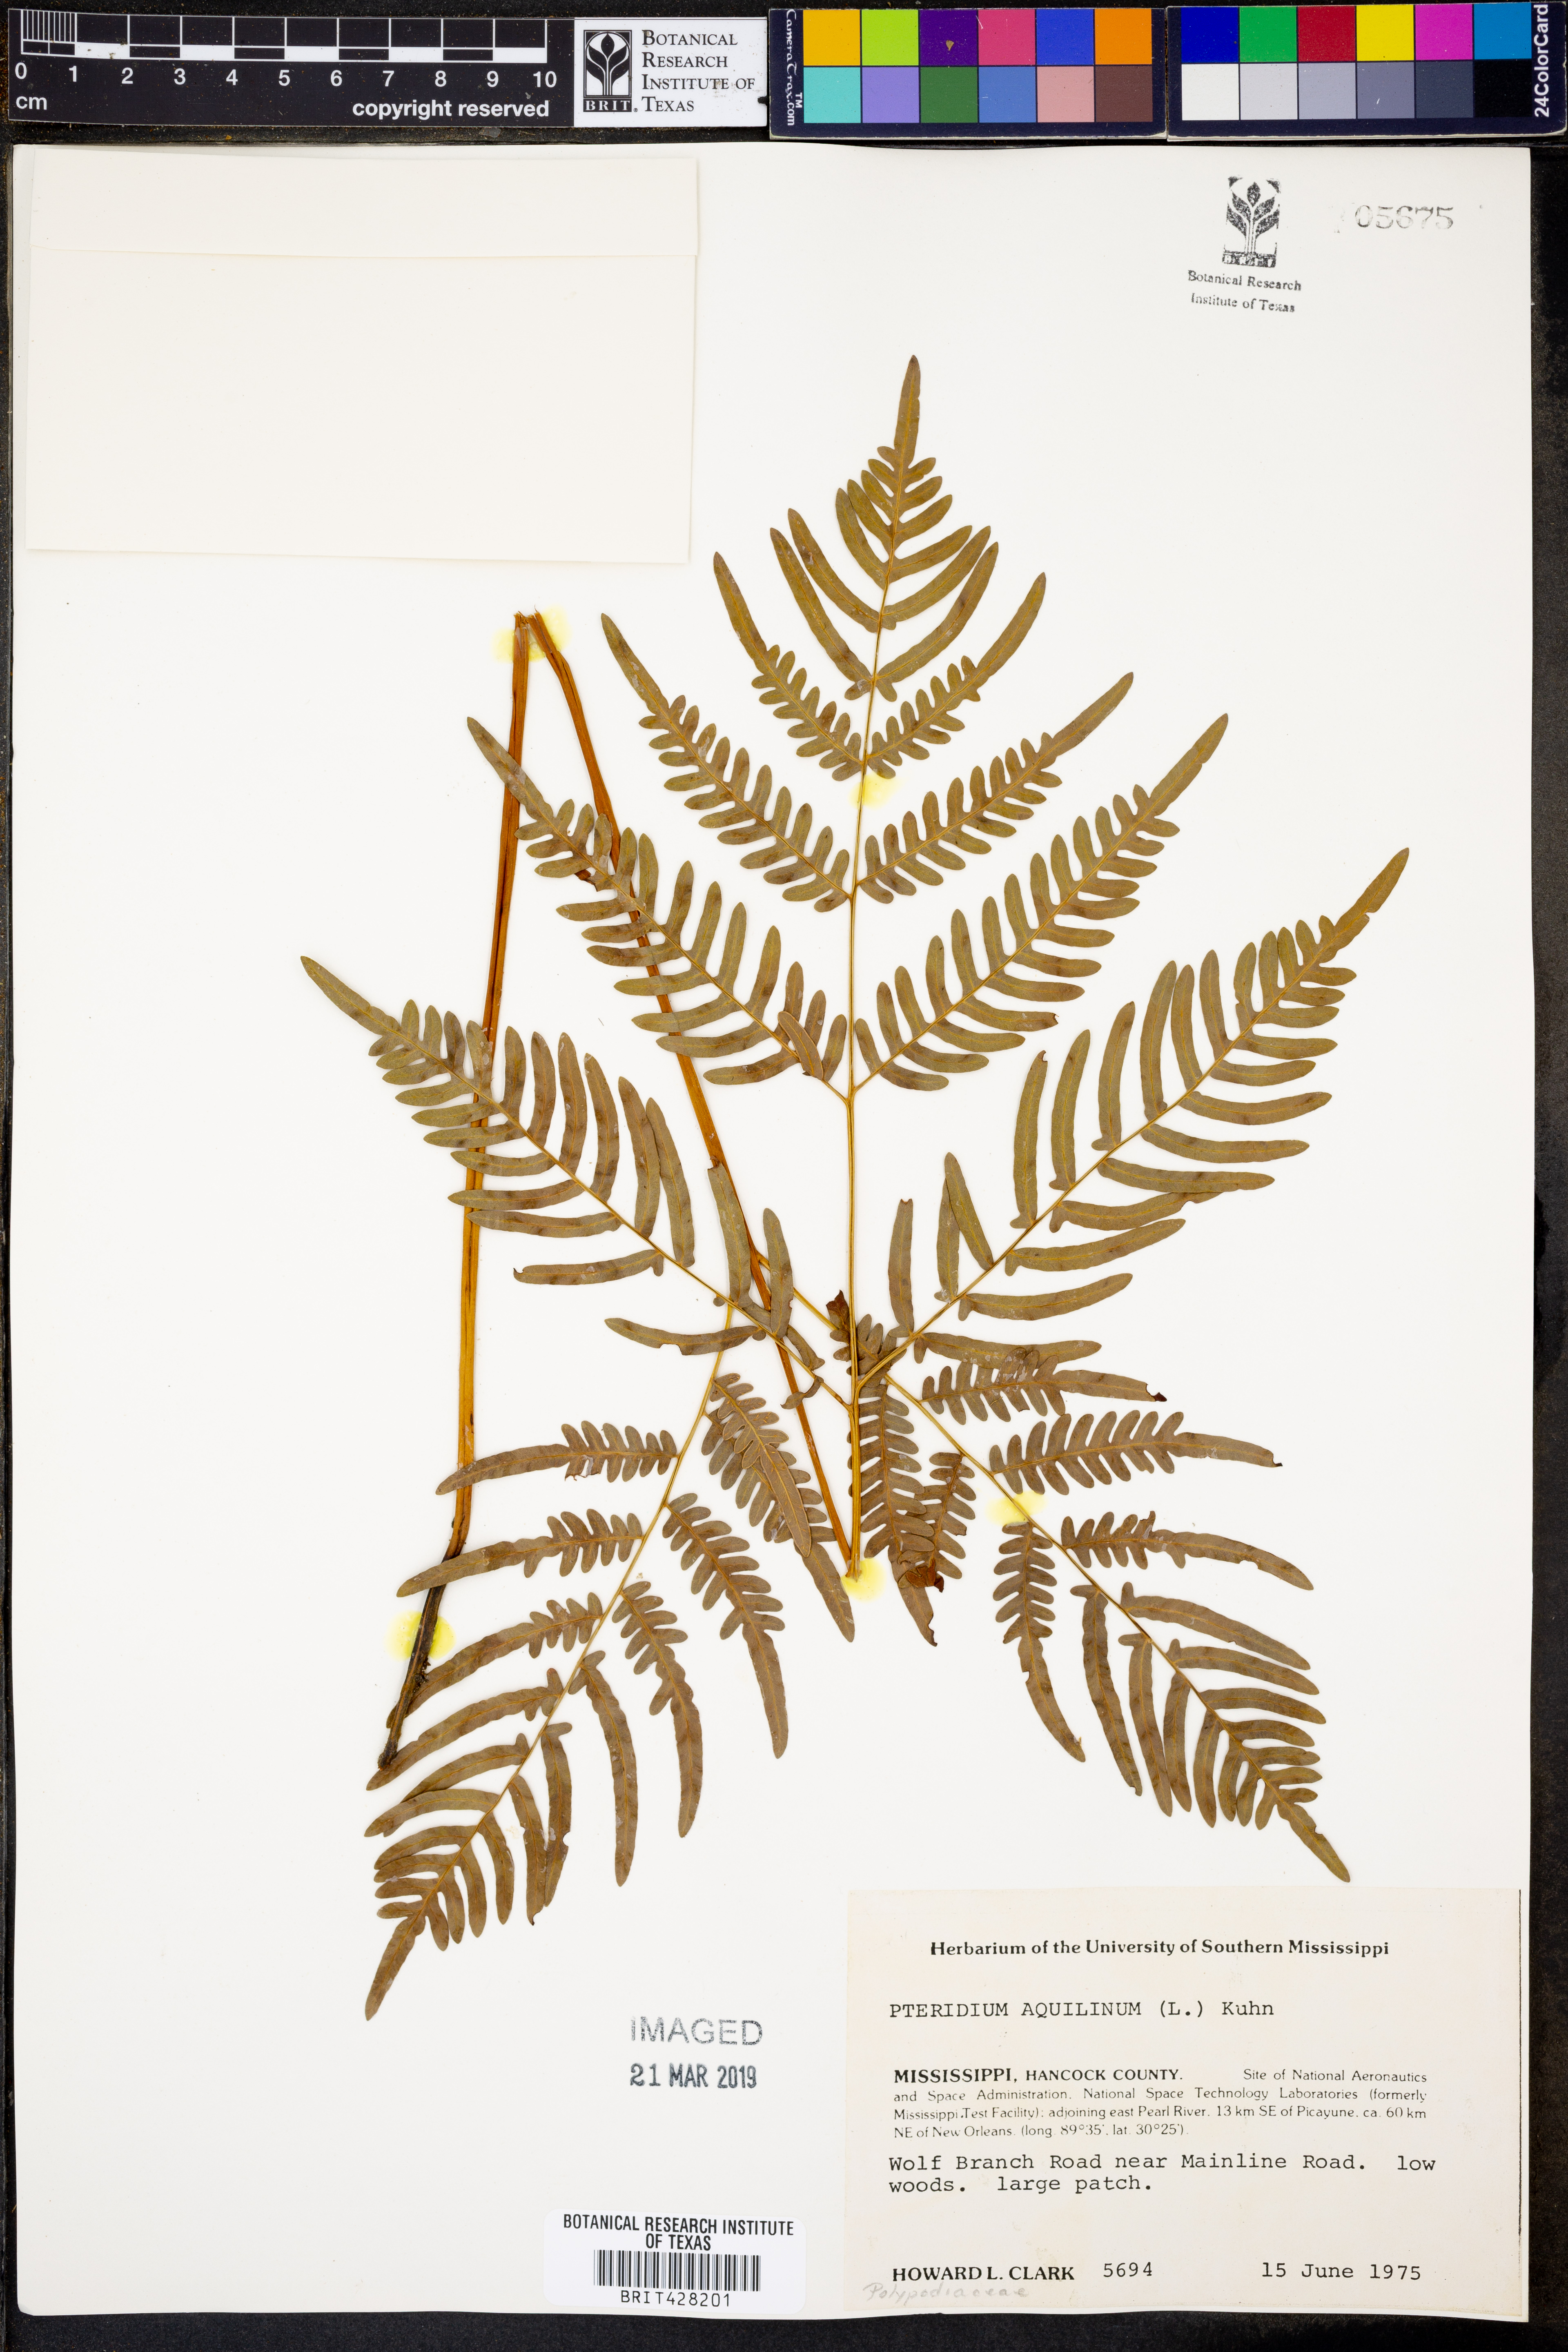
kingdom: Plantae
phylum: Tracheophyta
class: Polypodiopsida
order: Polypodiales
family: Dennstaedtiaceae
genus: Pteridium
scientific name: Pteridium aquilinum
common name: Bracken
